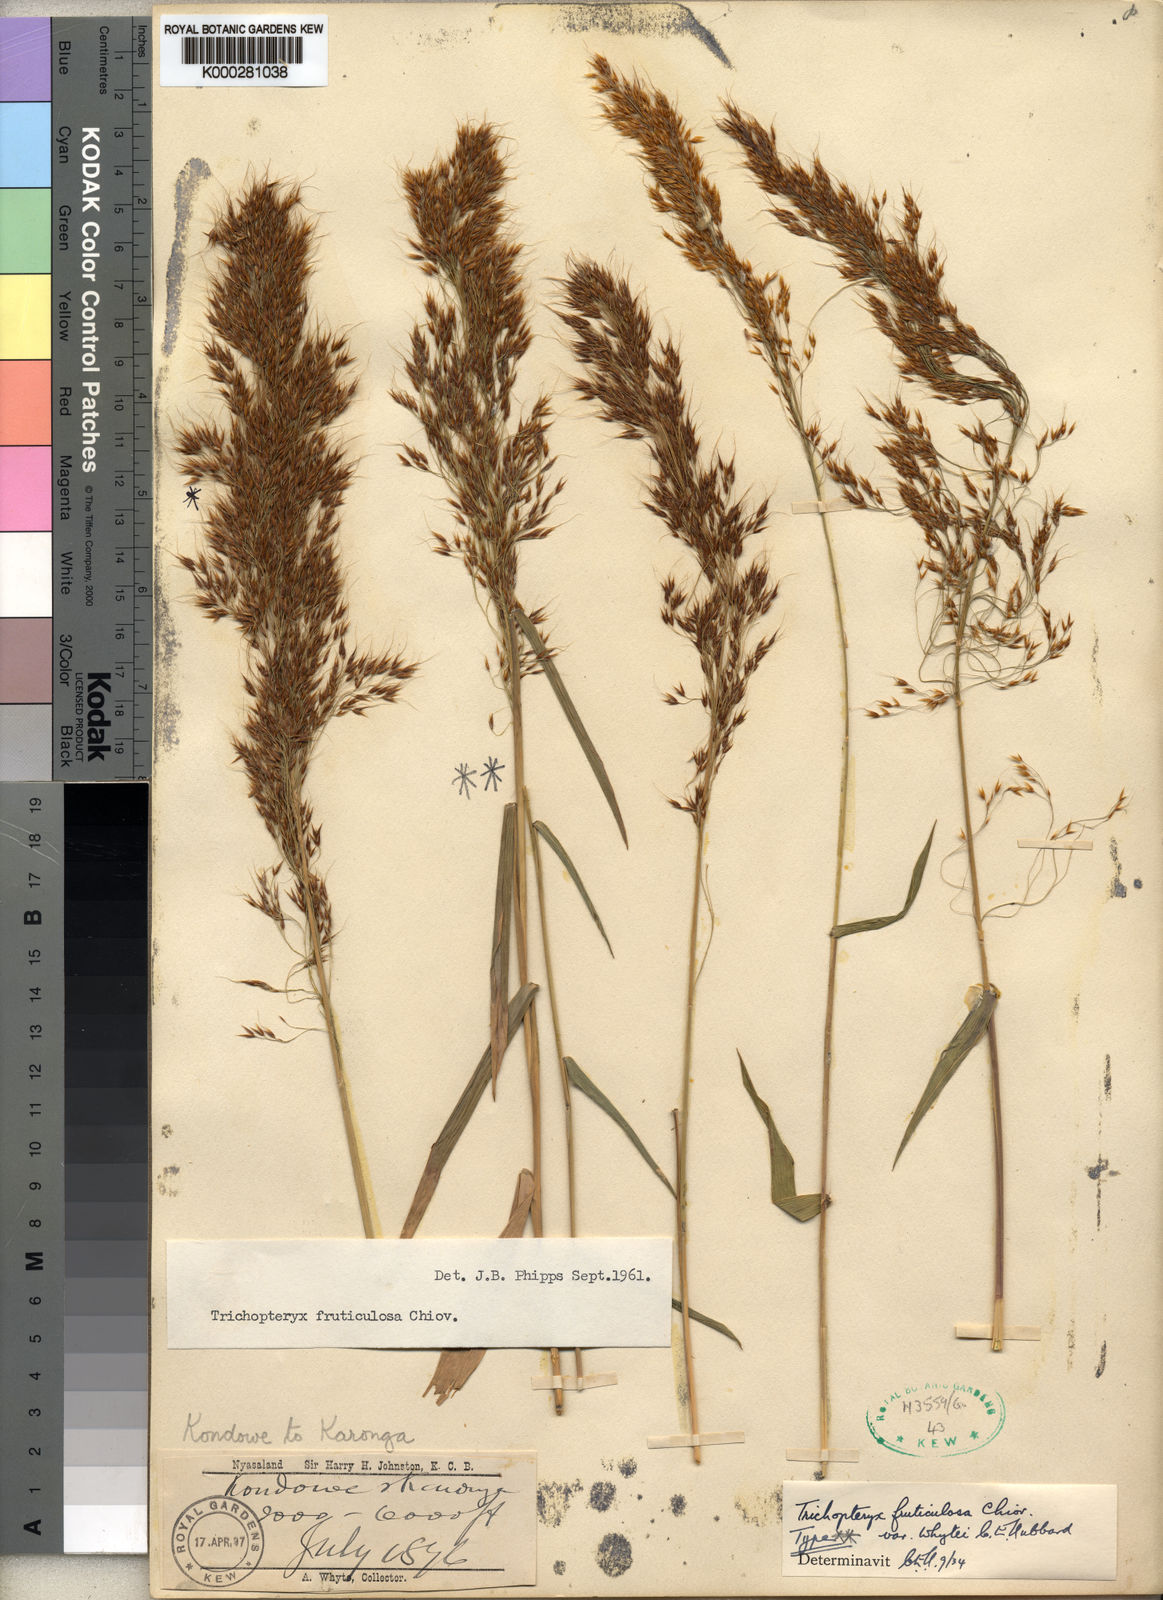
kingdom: Plantae
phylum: Tracheophyta
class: Liliopsida
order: Poales
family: Poaceae
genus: Trichopteryx
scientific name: Trichopteryx fruticulosa
